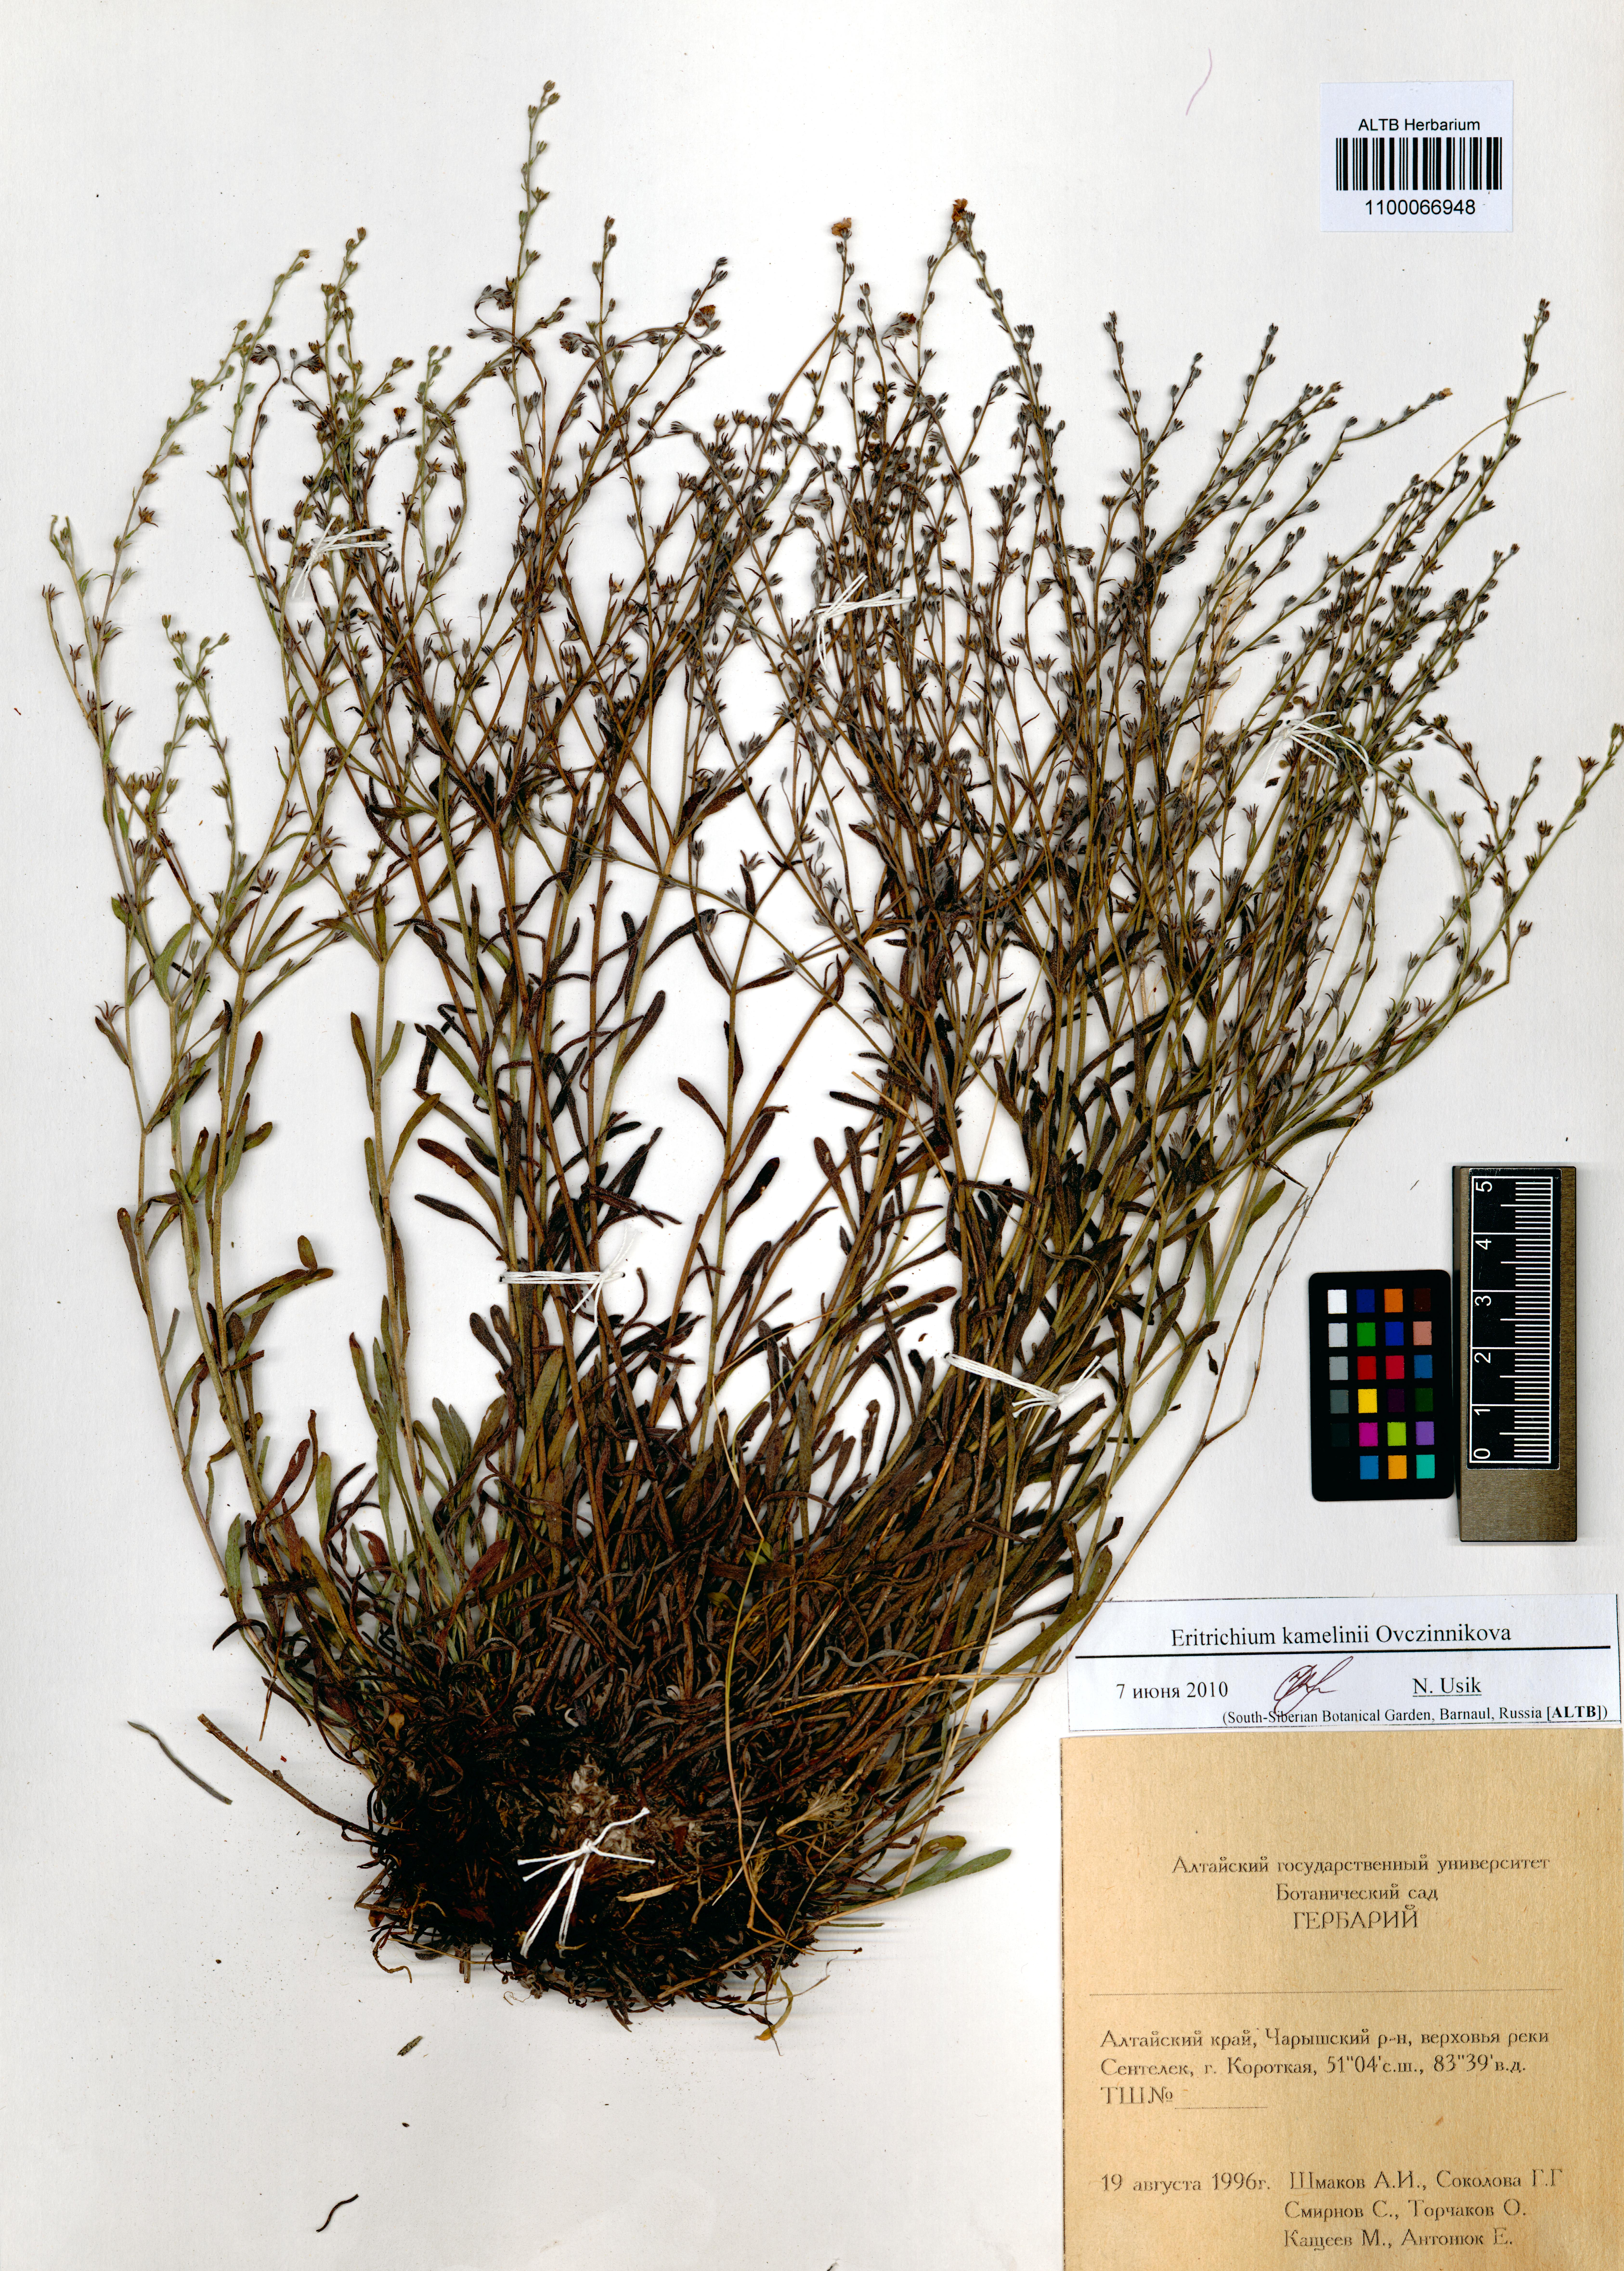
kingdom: Plantae
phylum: Tracheophyta
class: Magnoliopsida
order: Boraginales
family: Boraginaceae
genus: Eritrichium
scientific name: Eritrichium kamelinii
